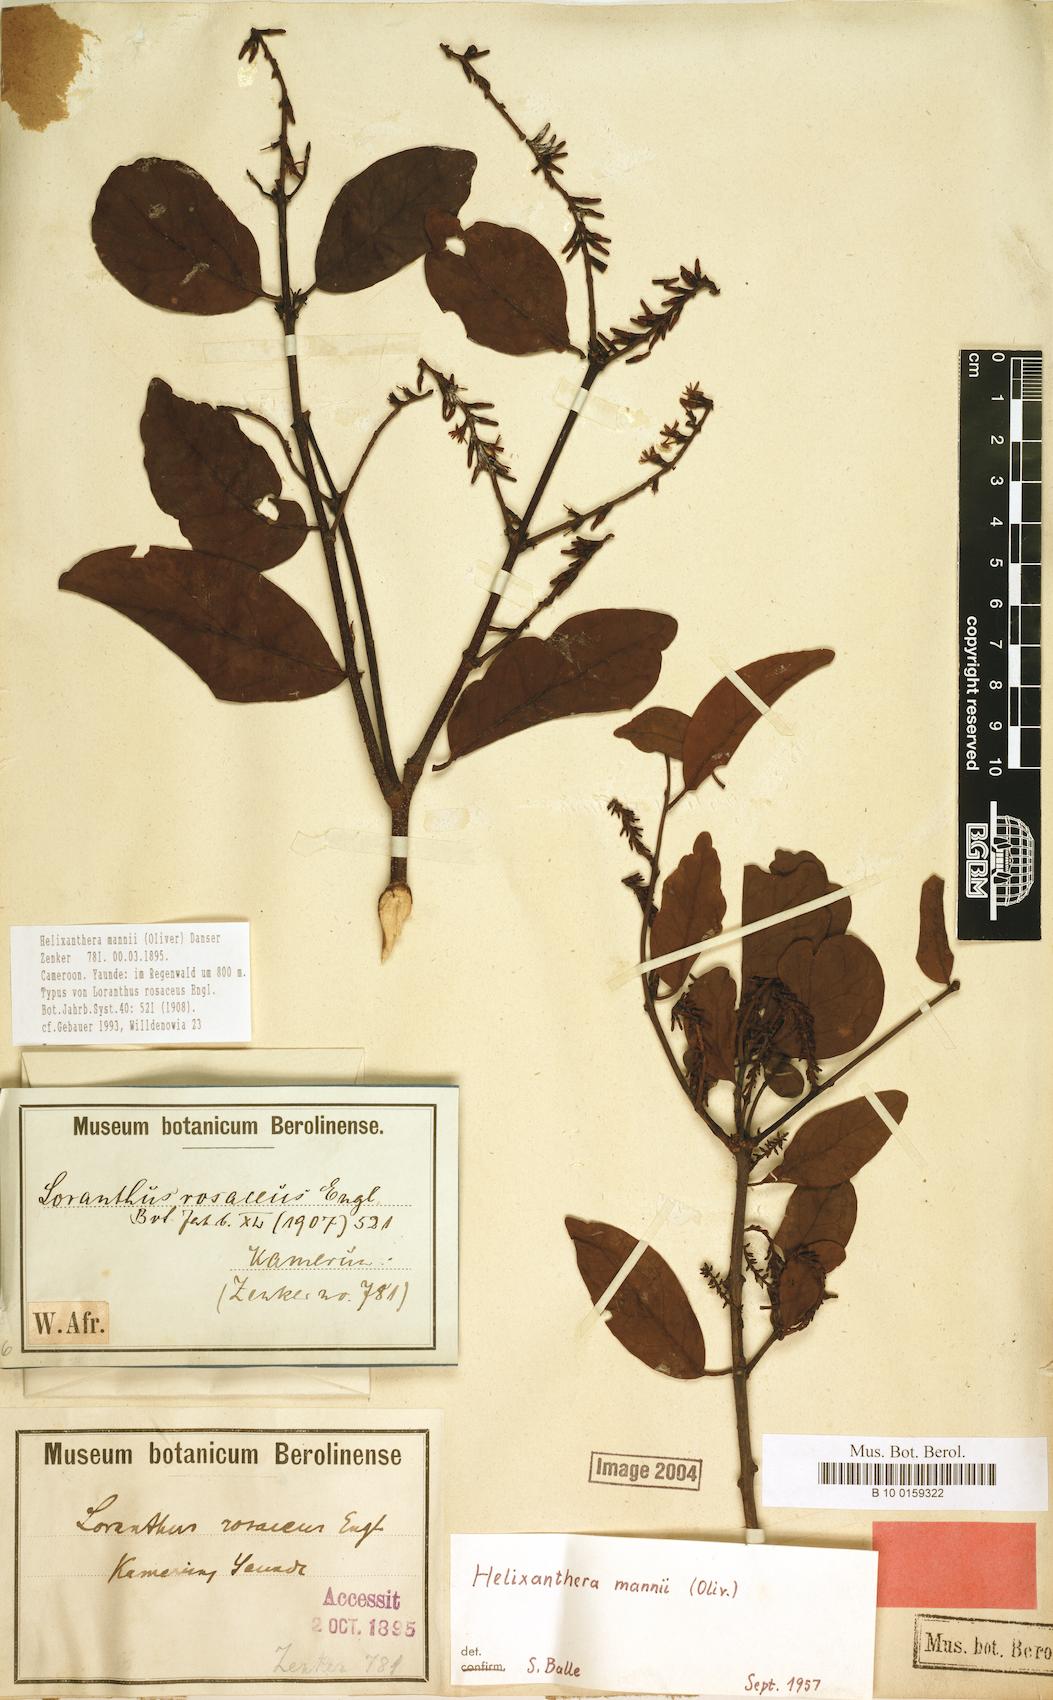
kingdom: Plantae
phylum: Tracheophyta
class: Magnoliopsida
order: Santalales
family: Loranthaceae
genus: Helixanthera
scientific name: Helixanthera mannii
